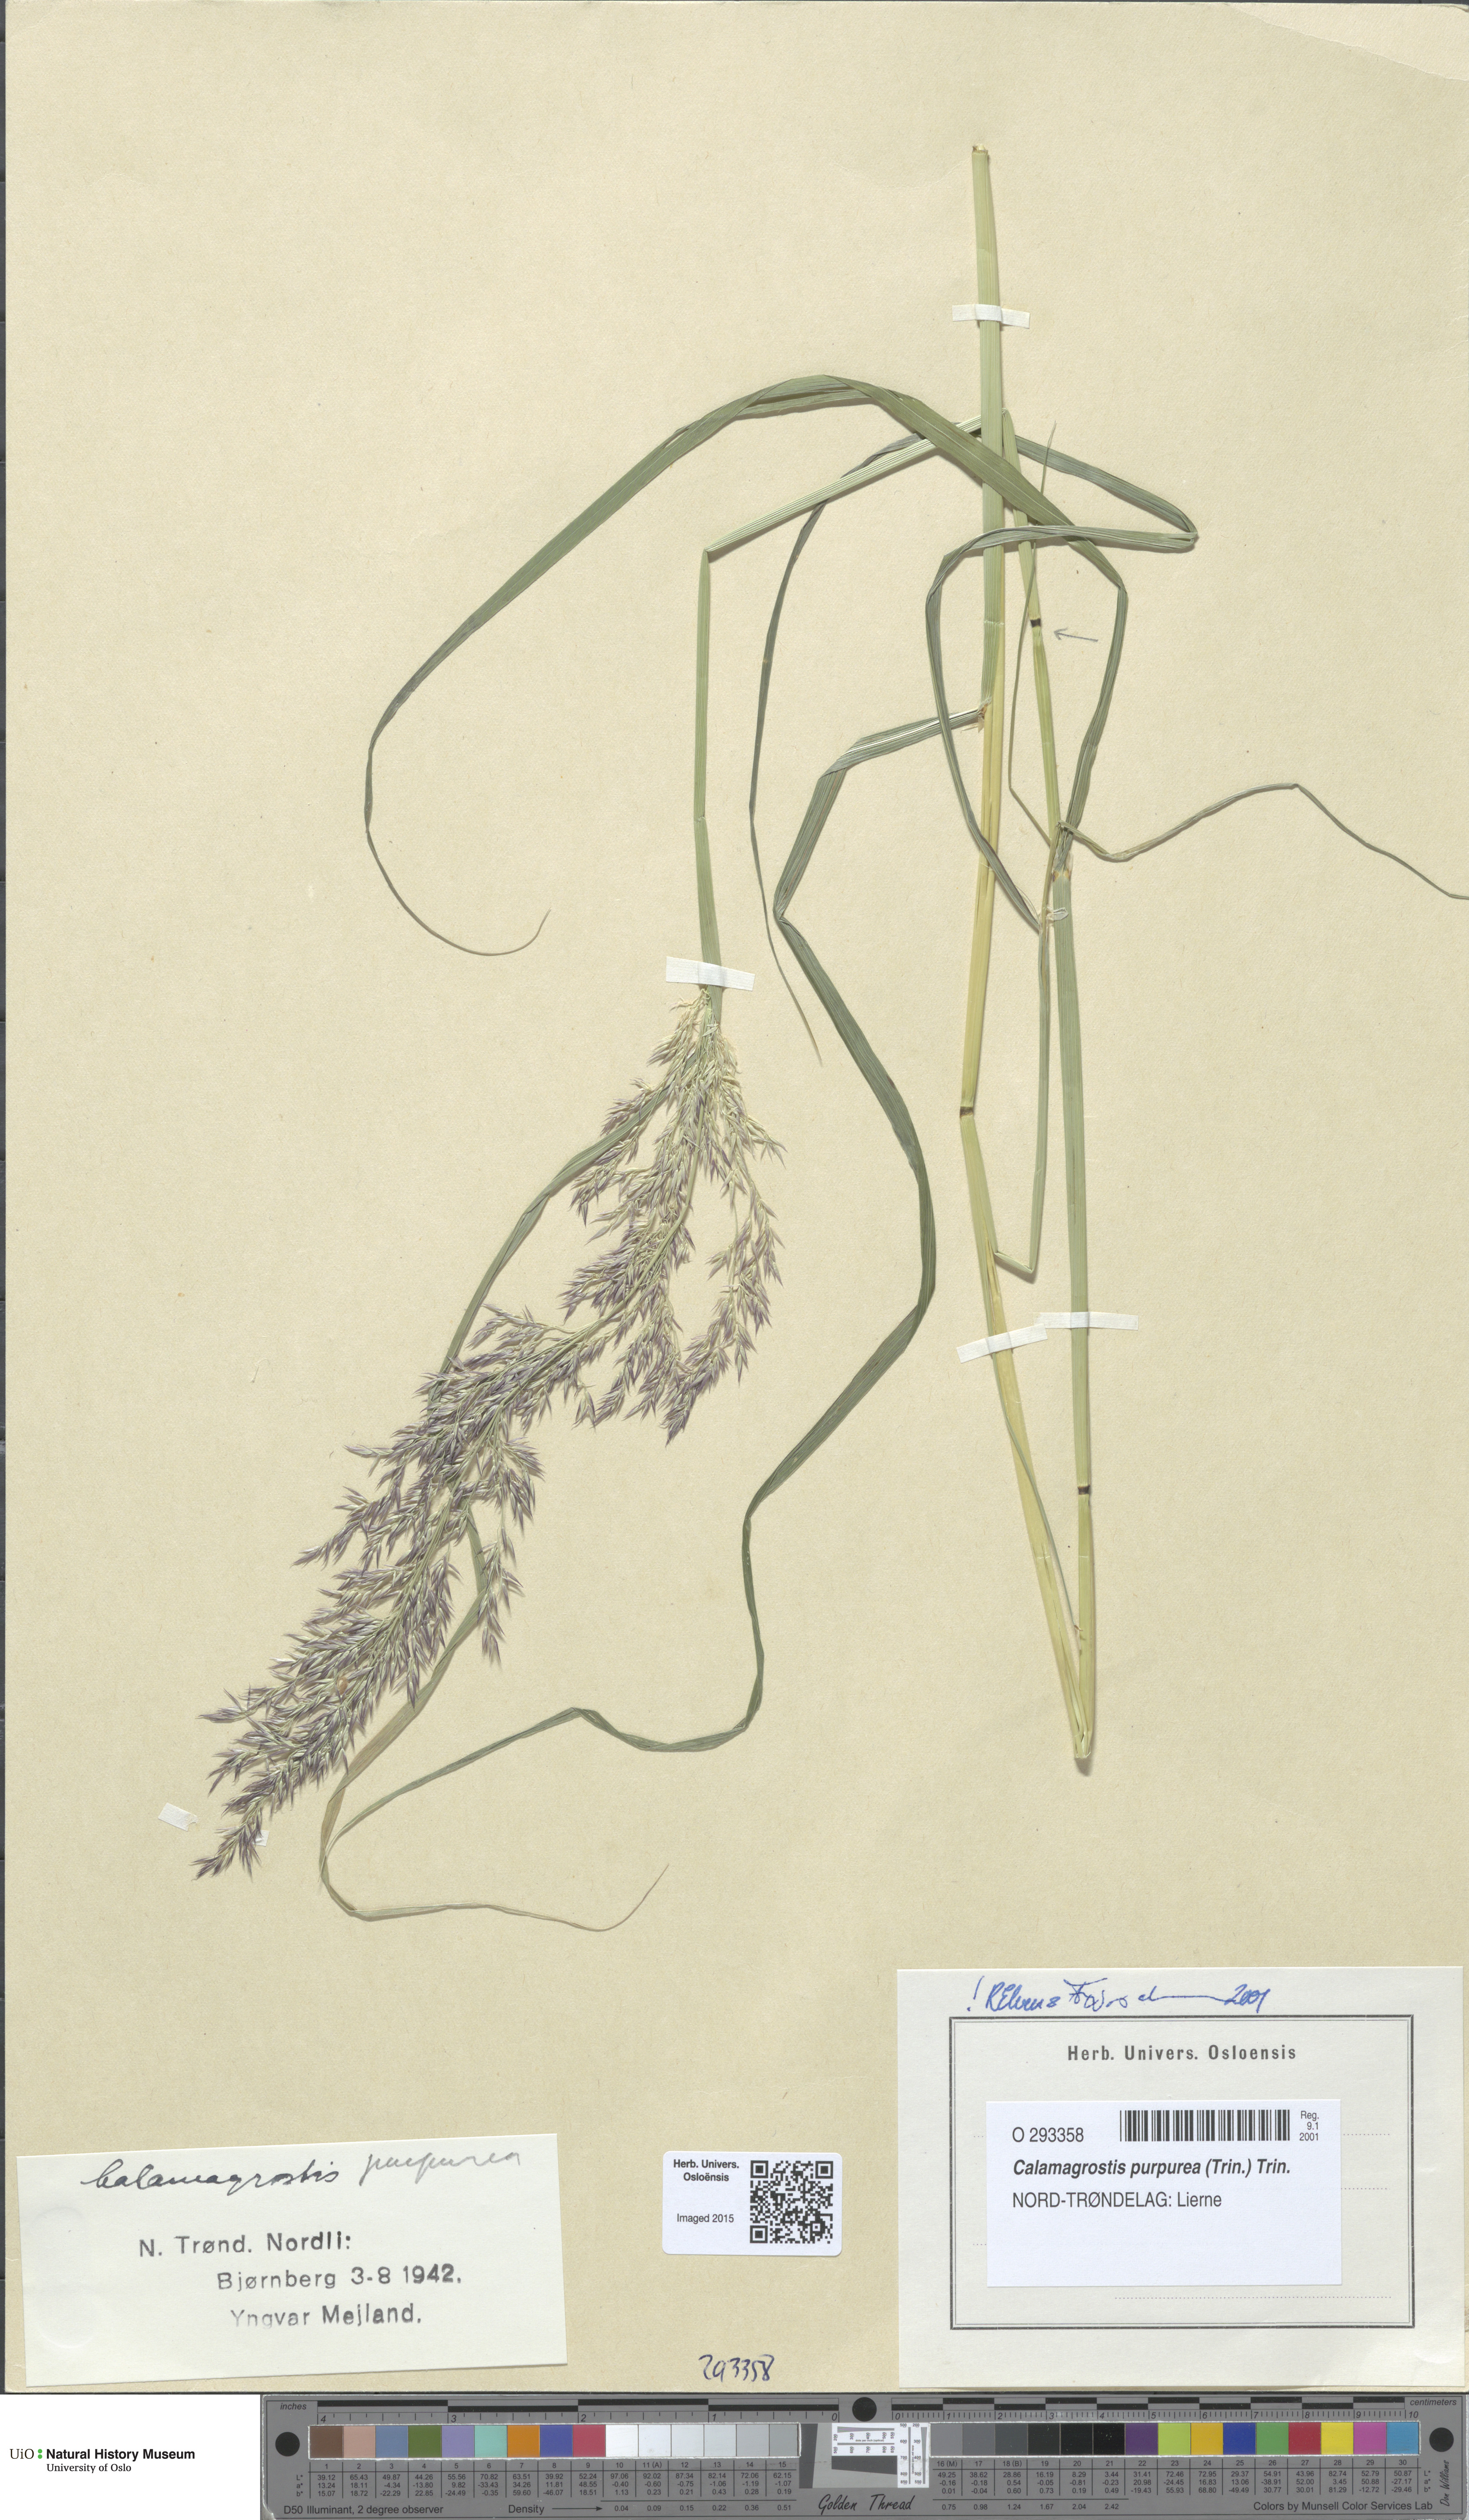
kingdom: Plantae
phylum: Tracheophyta
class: Liliopsida
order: Poales
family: Poaceae
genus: Calamagrostis
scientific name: Calamagrostis purpurea
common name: Scandinavian small-reed
